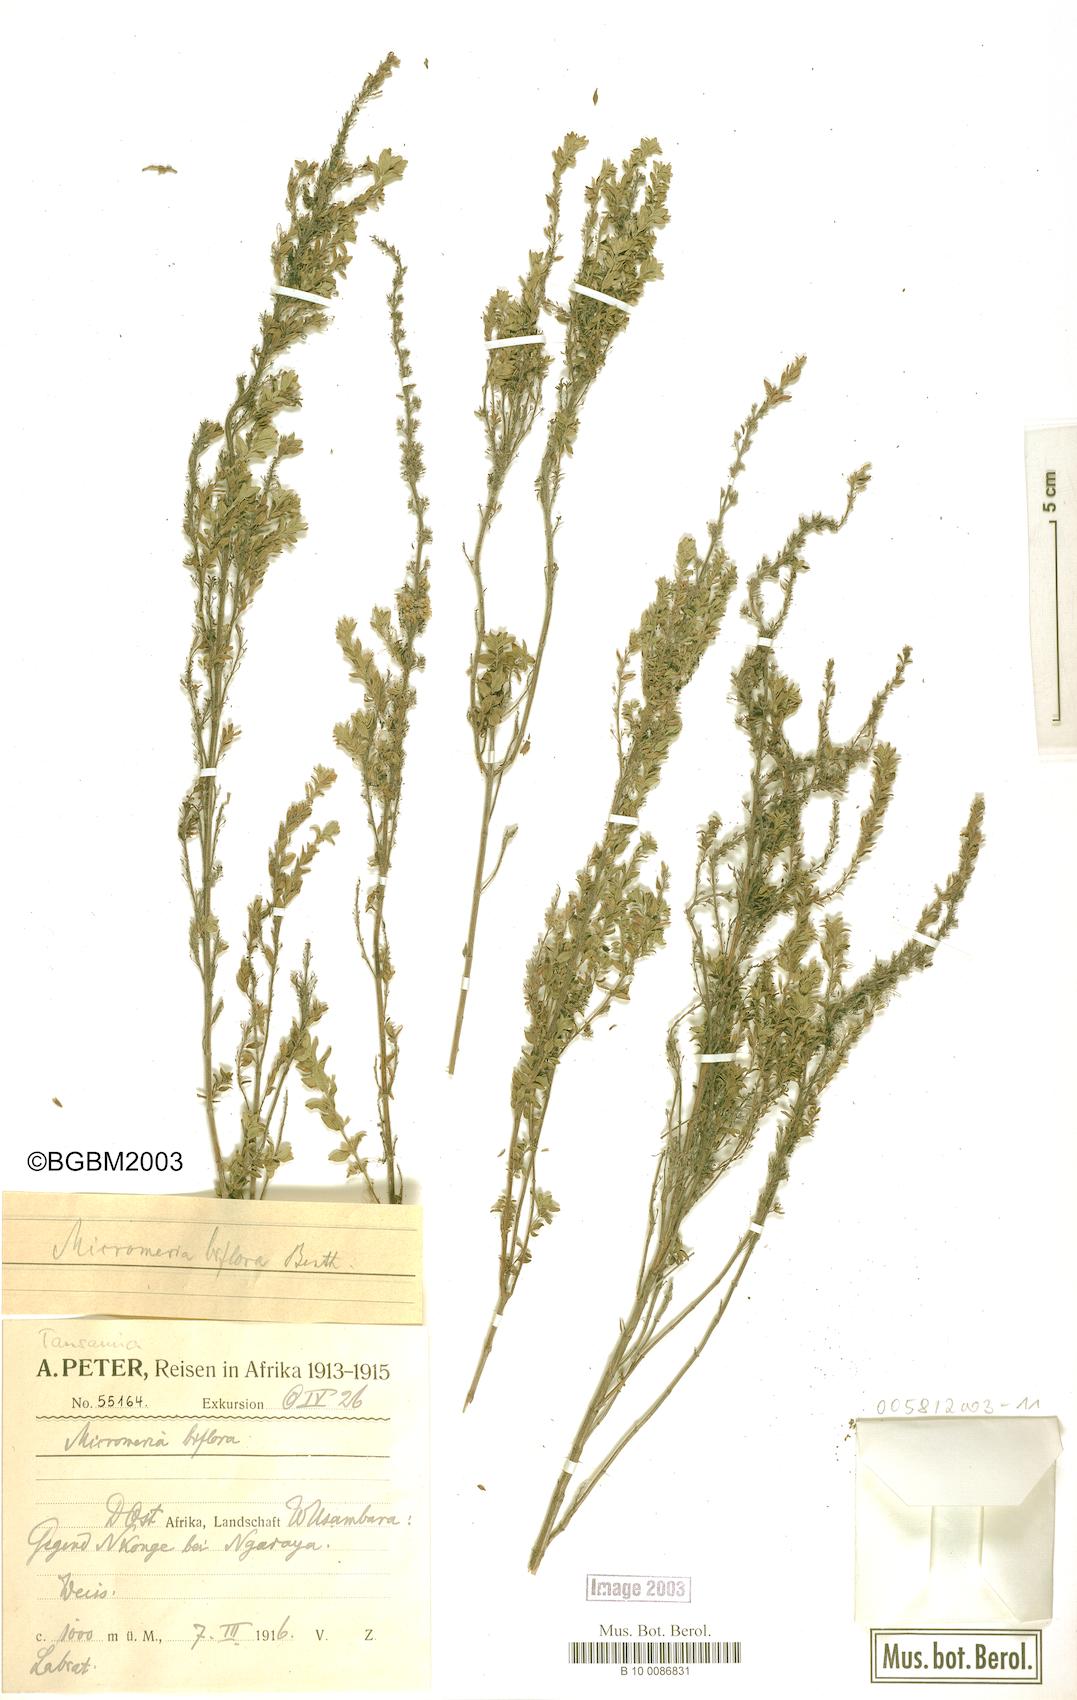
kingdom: Plantae
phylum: Tracheophyta
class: Magnoliopsida
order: Lamiales
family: Lamiaceae
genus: Micromeria
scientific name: Micromeria biflora
